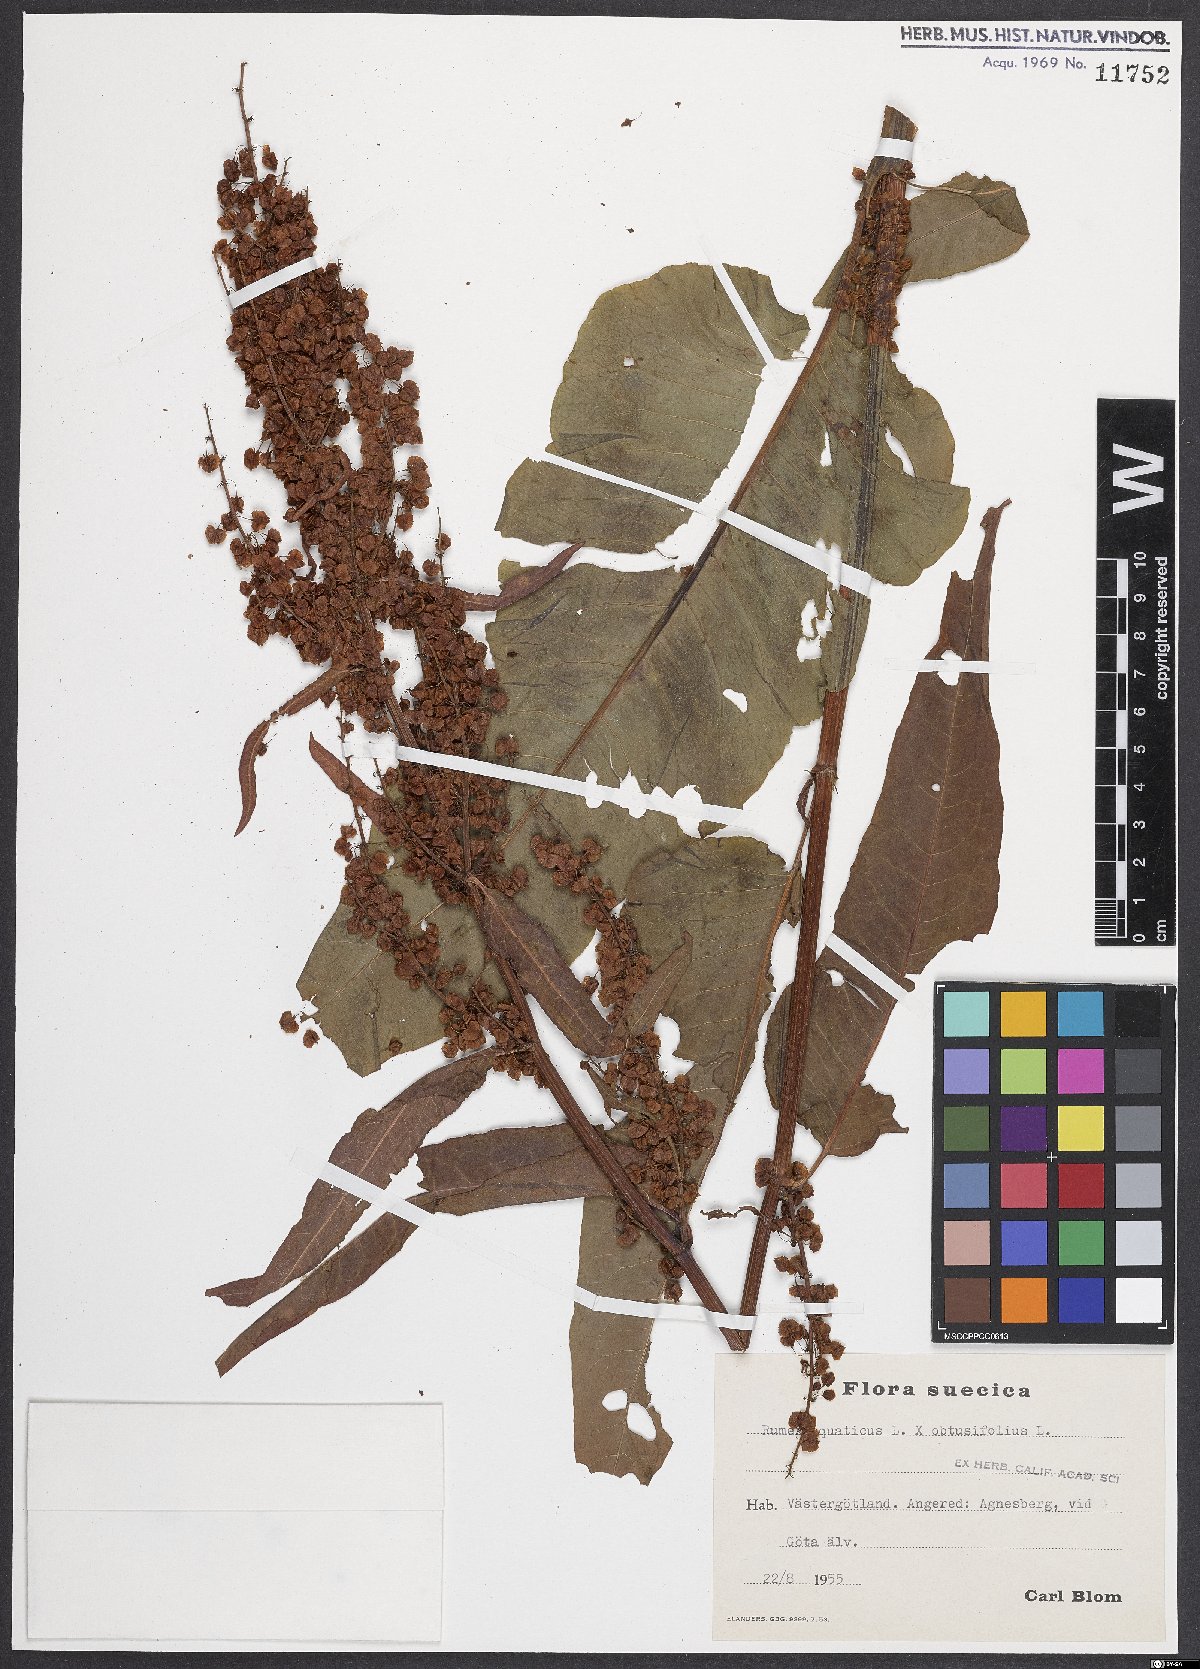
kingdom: Plantae
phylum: Tracheophyta
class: Magnoliopsida
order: Caryophyllales
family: Polygonaceae
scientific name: Polygonaceae
